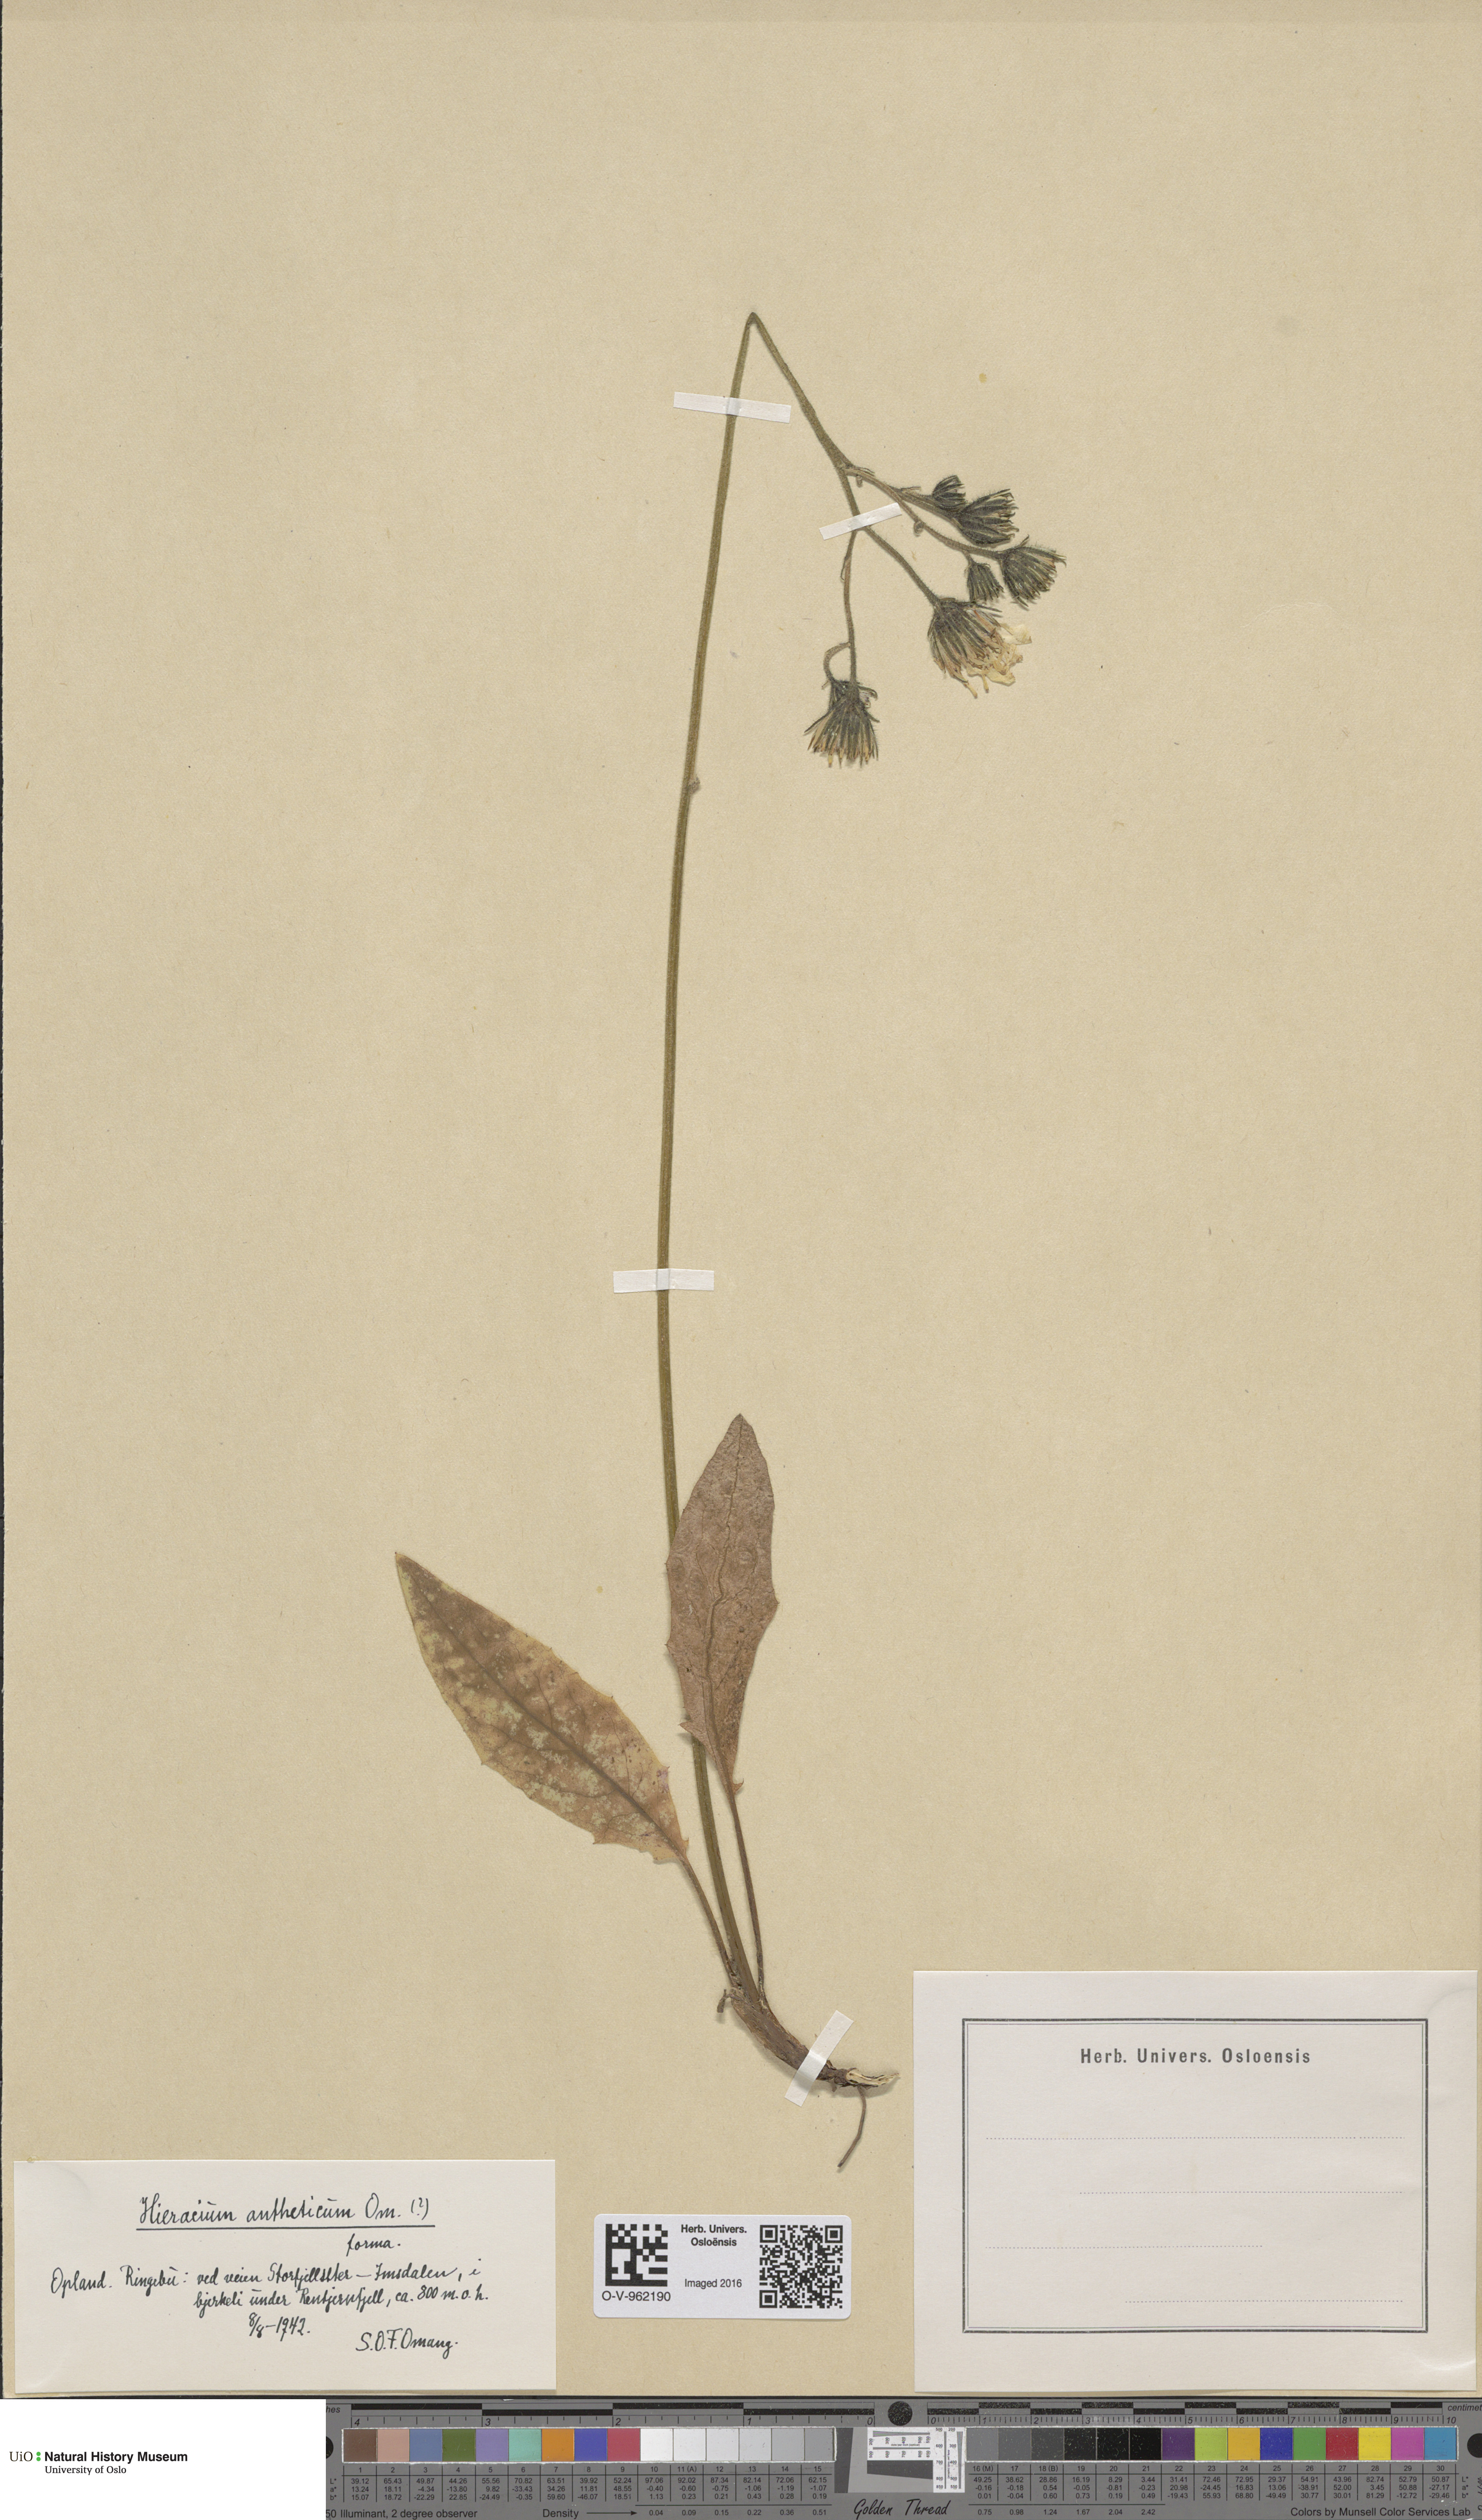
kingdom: Plantae
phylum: Tracheophyta
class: Magnoliopsida
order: Asterales
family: Asteraceae
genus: Hieracium
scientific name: Hieracium
